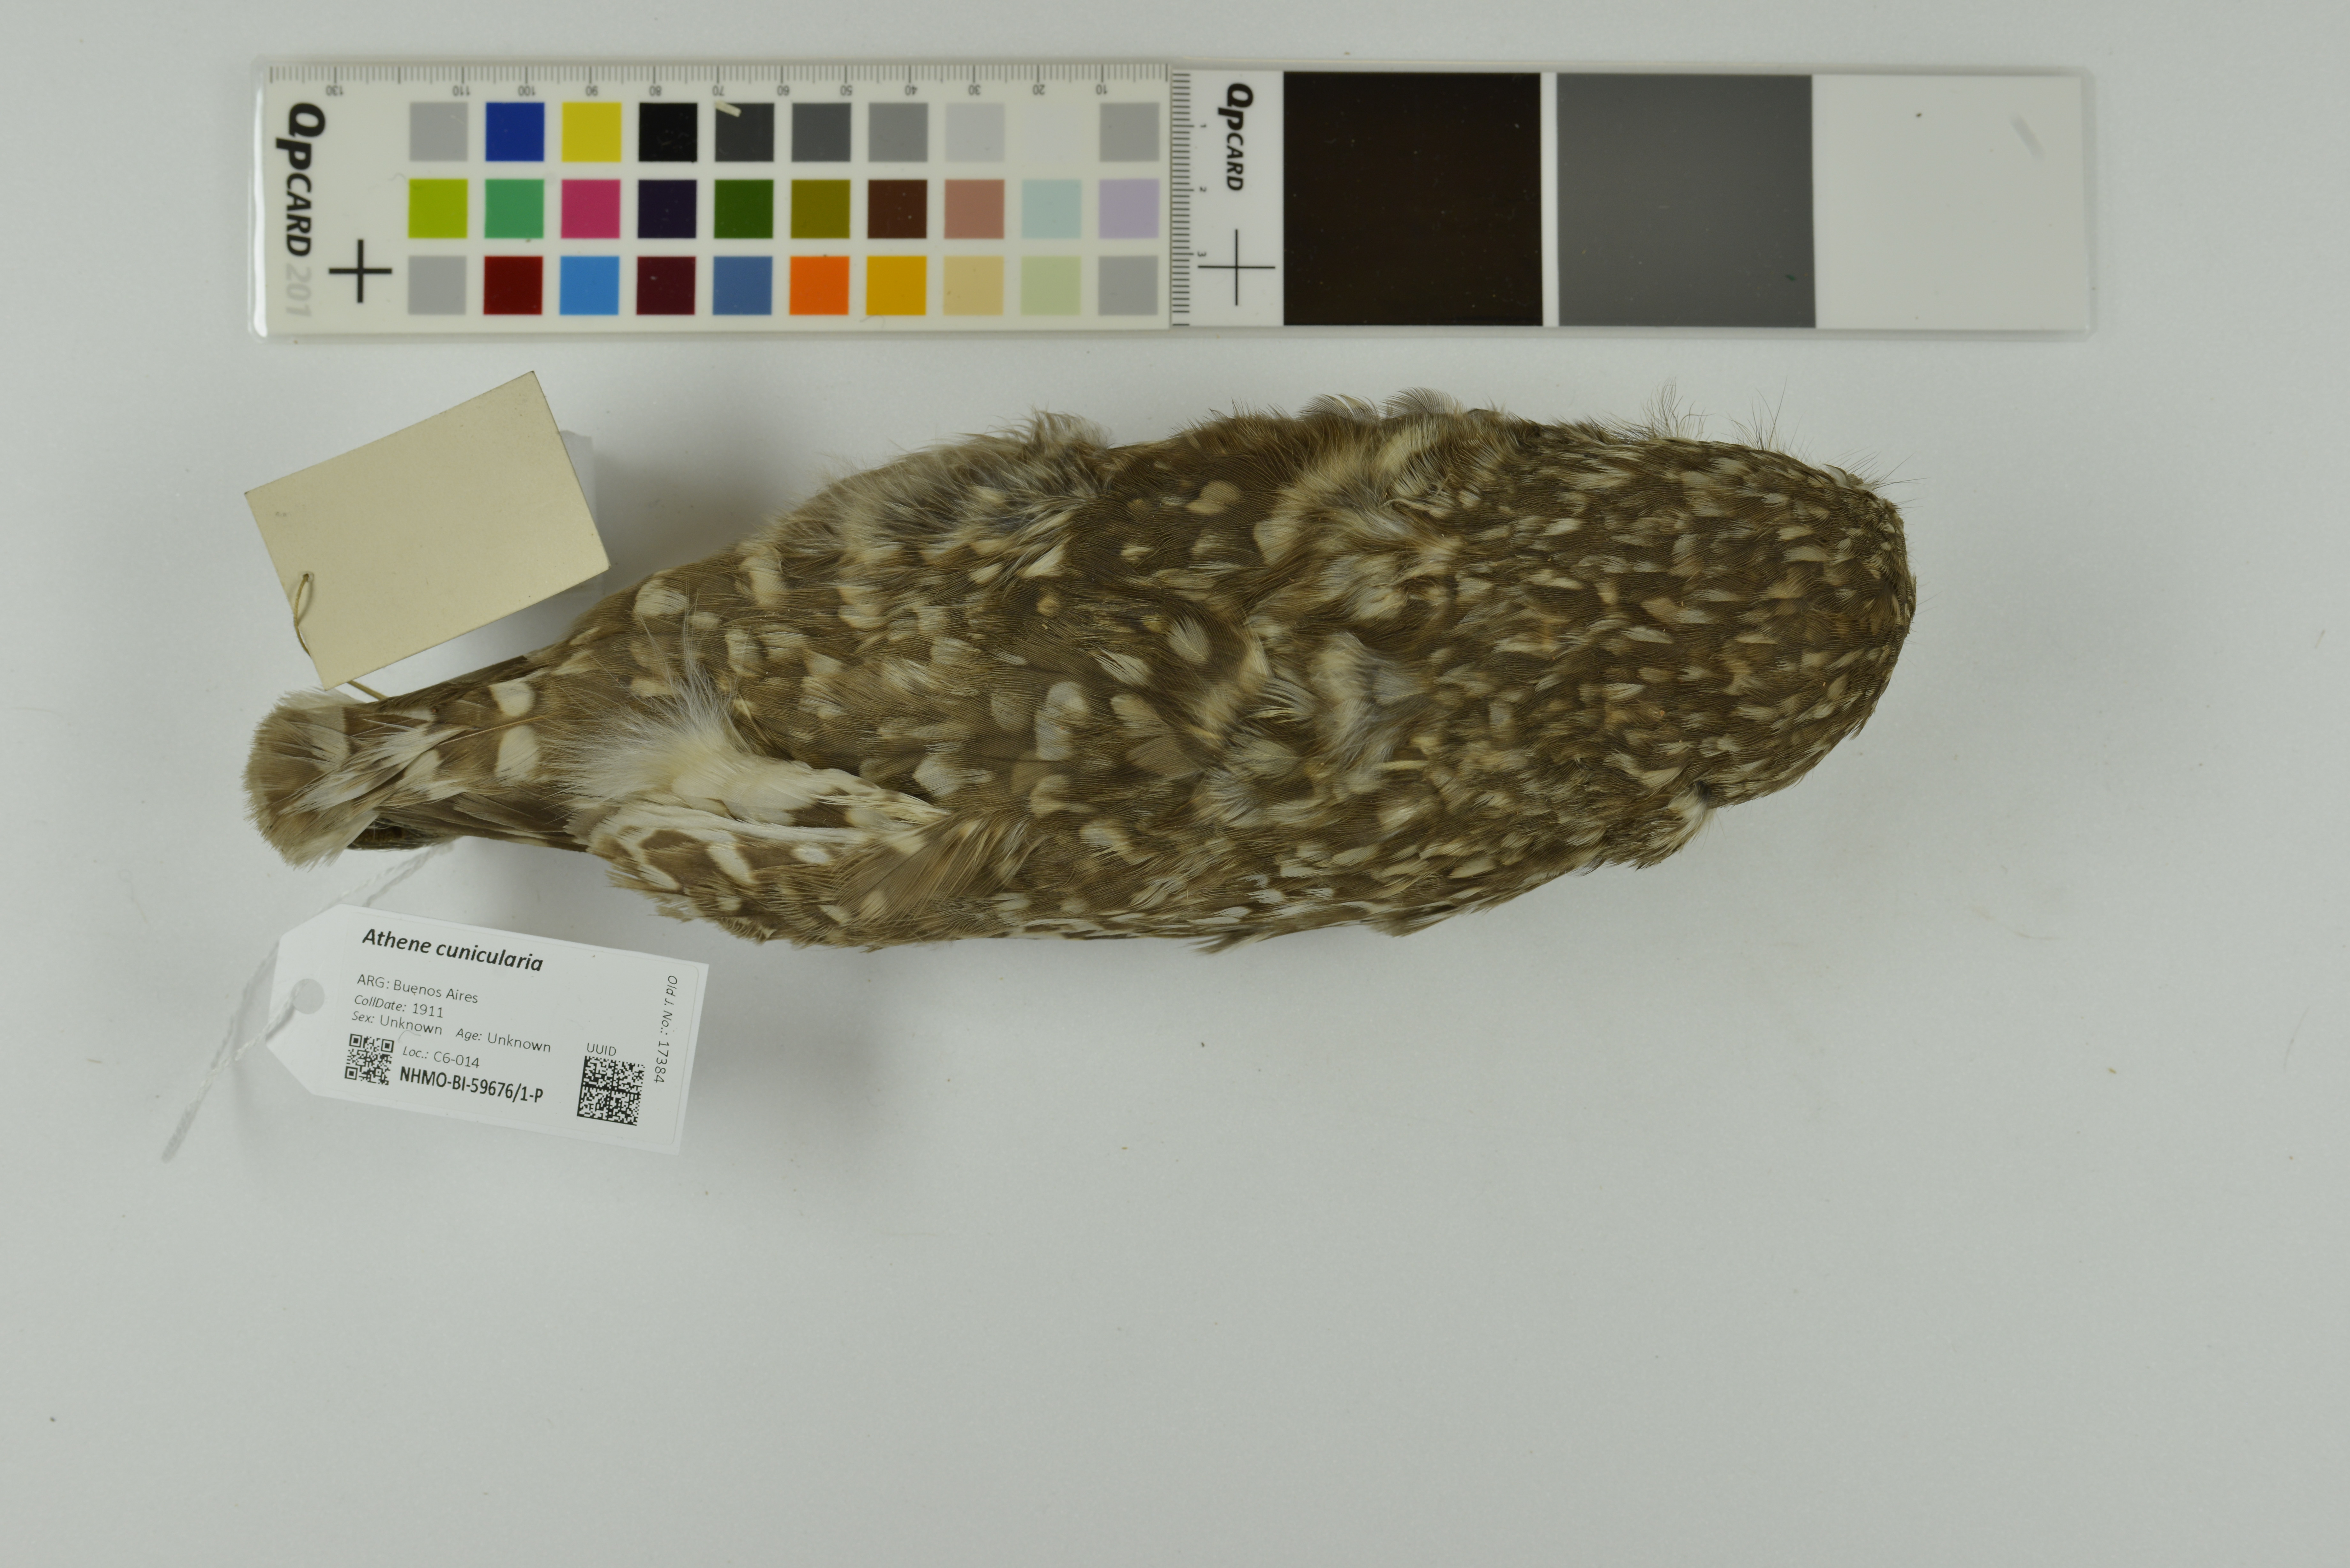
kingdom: Animalia
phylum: Chordata
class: Aves
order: Strigiformes
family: Strigidae
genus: Athene
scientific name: Athene cunicularia
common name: Burrowing owl
